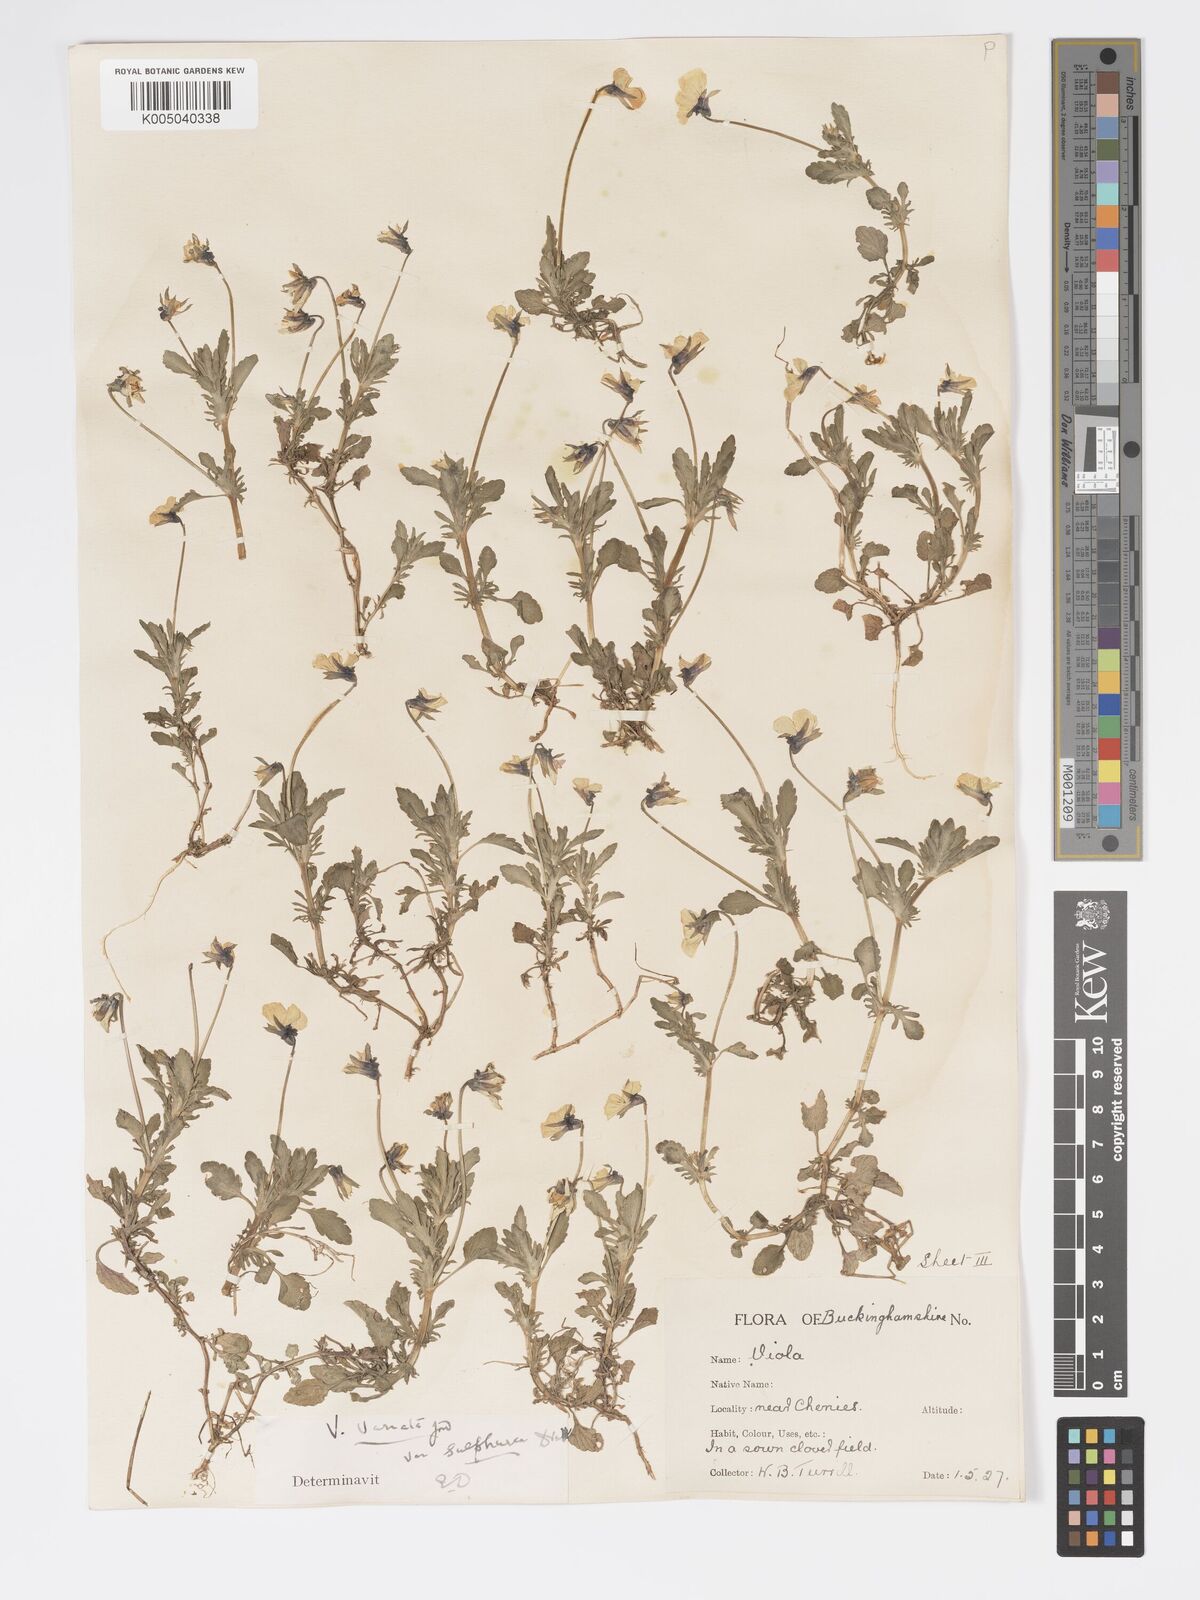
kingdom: Plantae
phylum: Tracheophyta
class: Magnoliopsida
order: Malpighiales
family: Violaceae
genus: Viola
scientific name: Viola arvensis
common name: Field pansy
